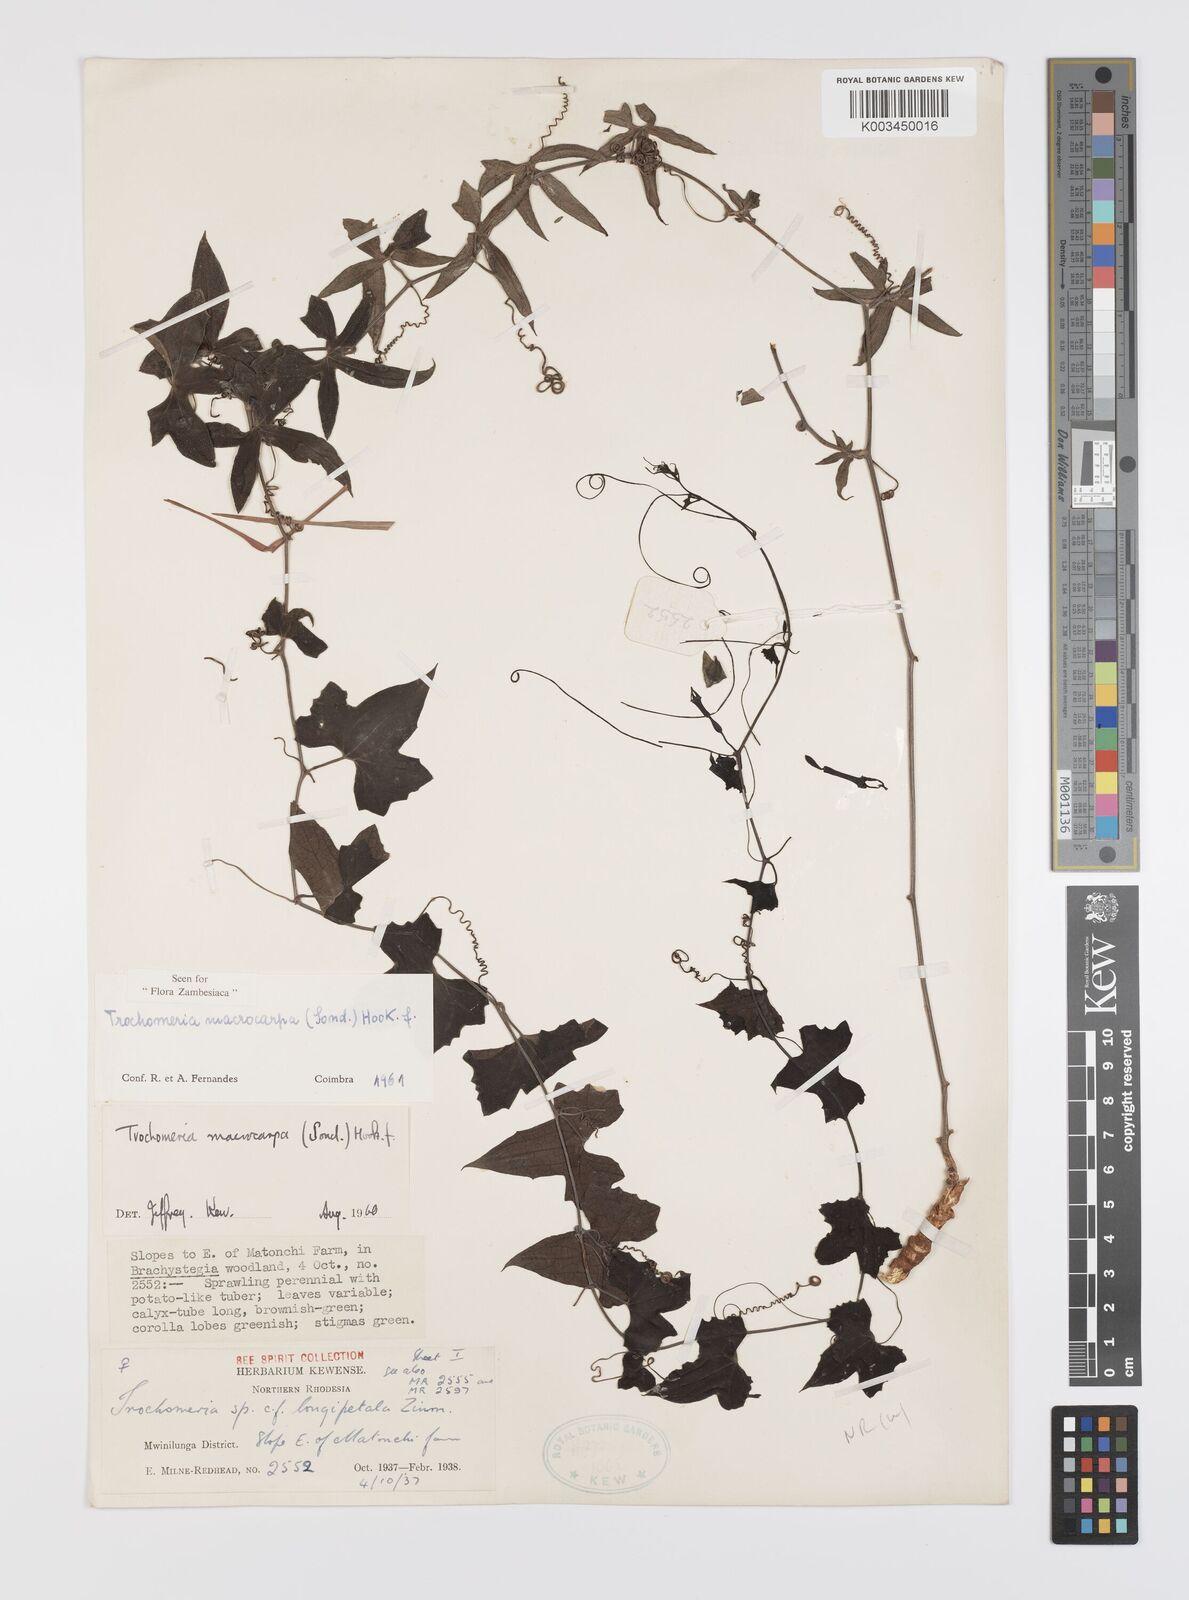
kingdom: Plantae
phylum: Tracheophyta
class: Magnoliopsida
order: Cucurbitales
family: Cucurbitaceae
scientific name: Cucurbitaceae
